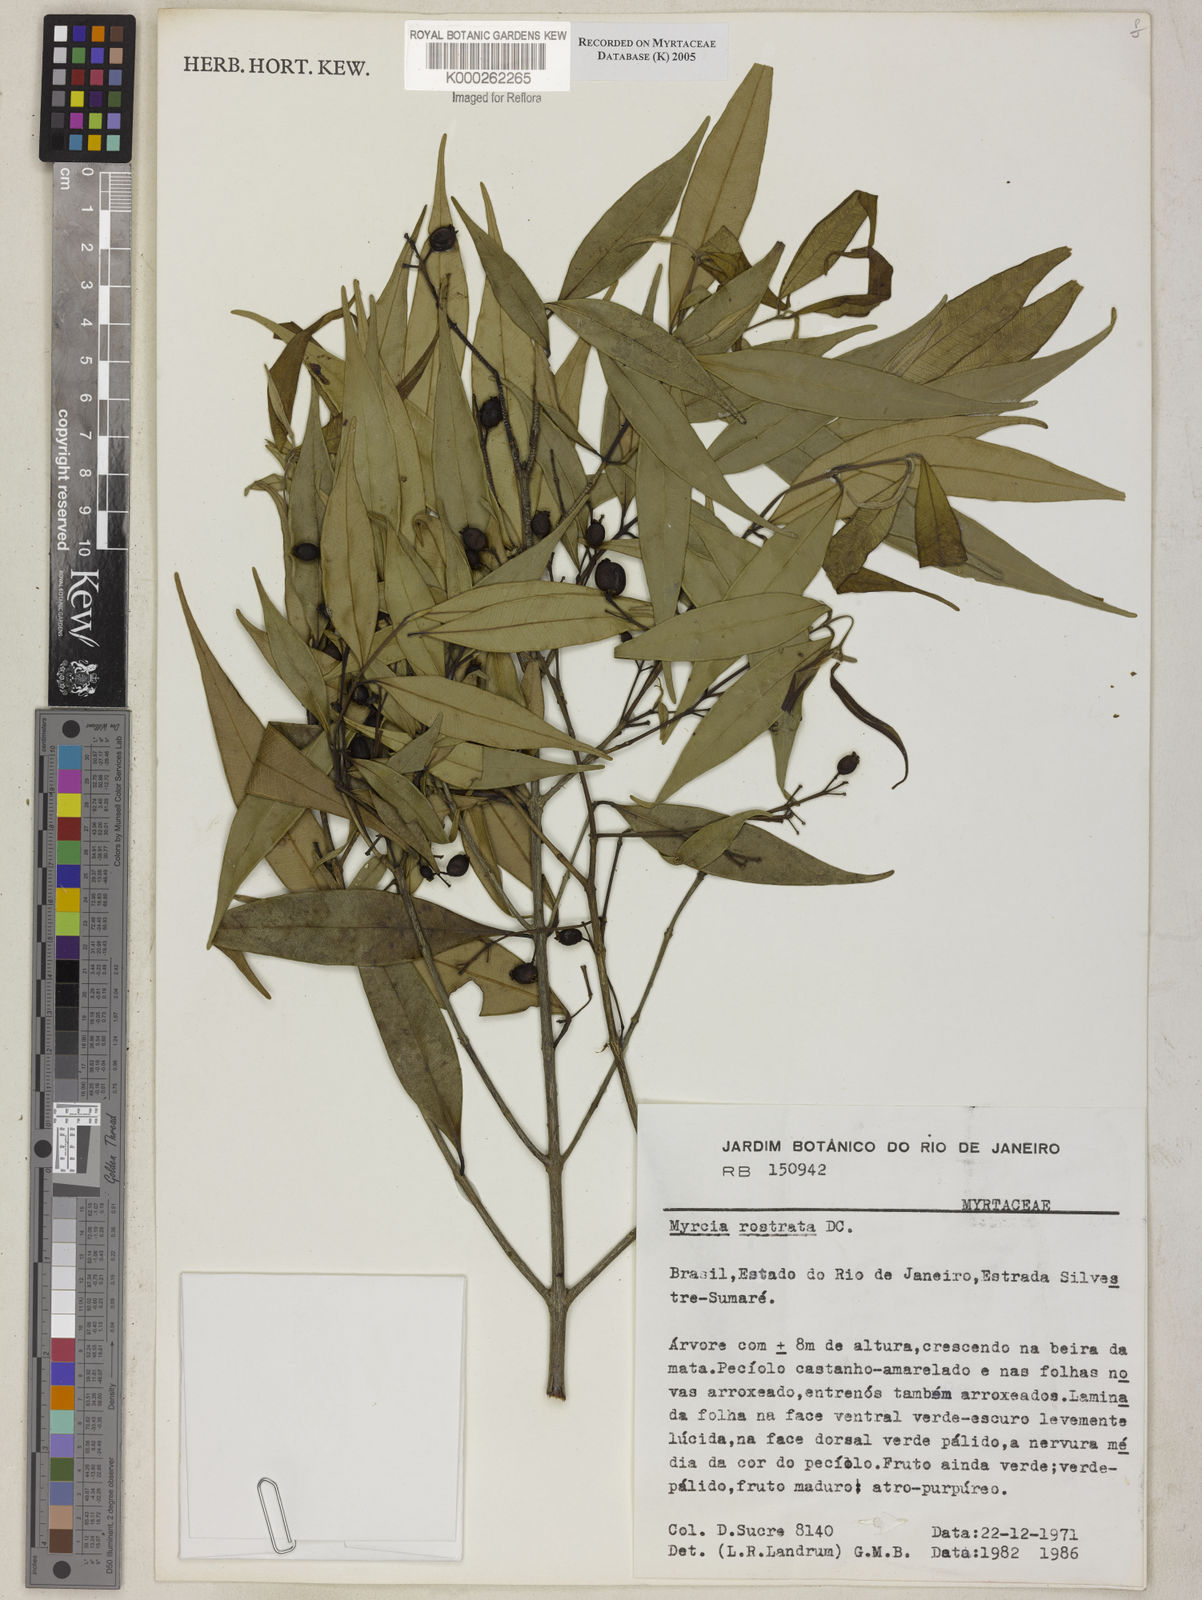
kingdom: Plantae
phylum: Tracheophyta
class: Magnoliopsida
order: Myrtales
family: Myrtaceae
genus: Myrcia
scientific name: Myrcia splendens
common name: Surinam cherry
